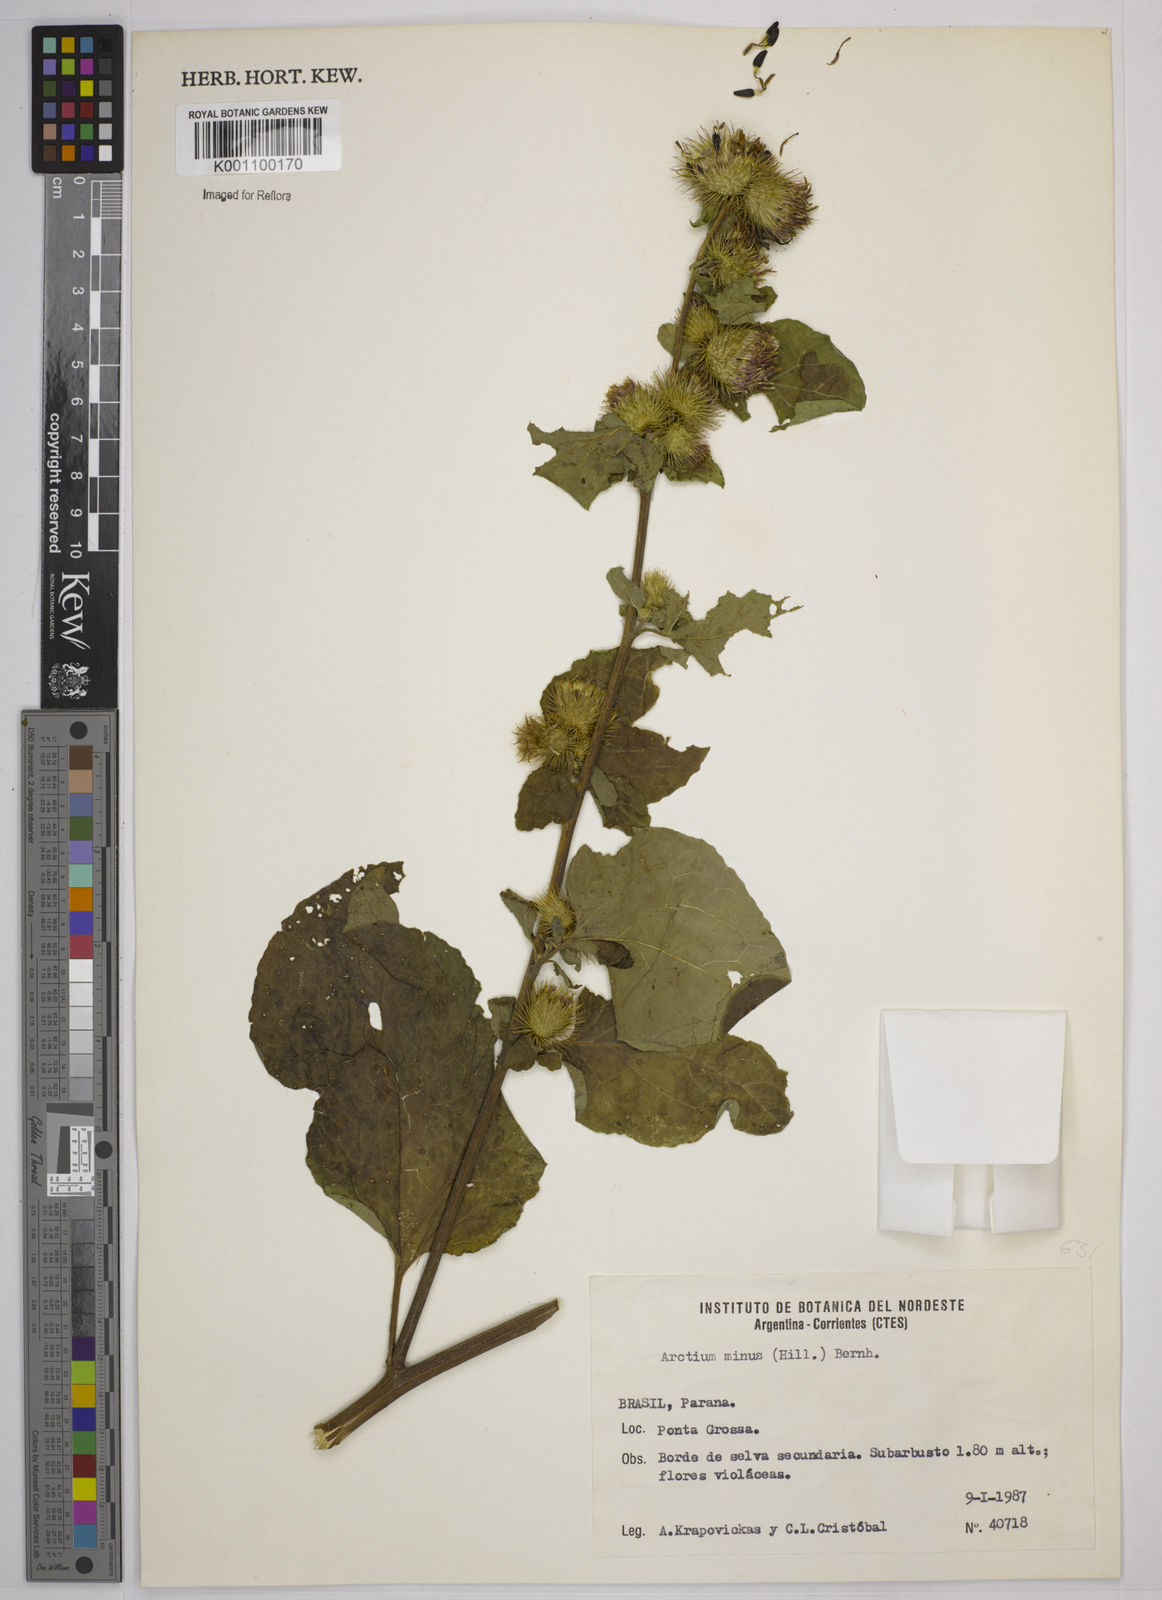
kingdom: Plantae
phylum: Tracheophyta
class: Magnoliopsida
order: Asterales
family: Asteraceae
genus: Arctium
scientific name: Arctium minus
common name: Lesser burdock
